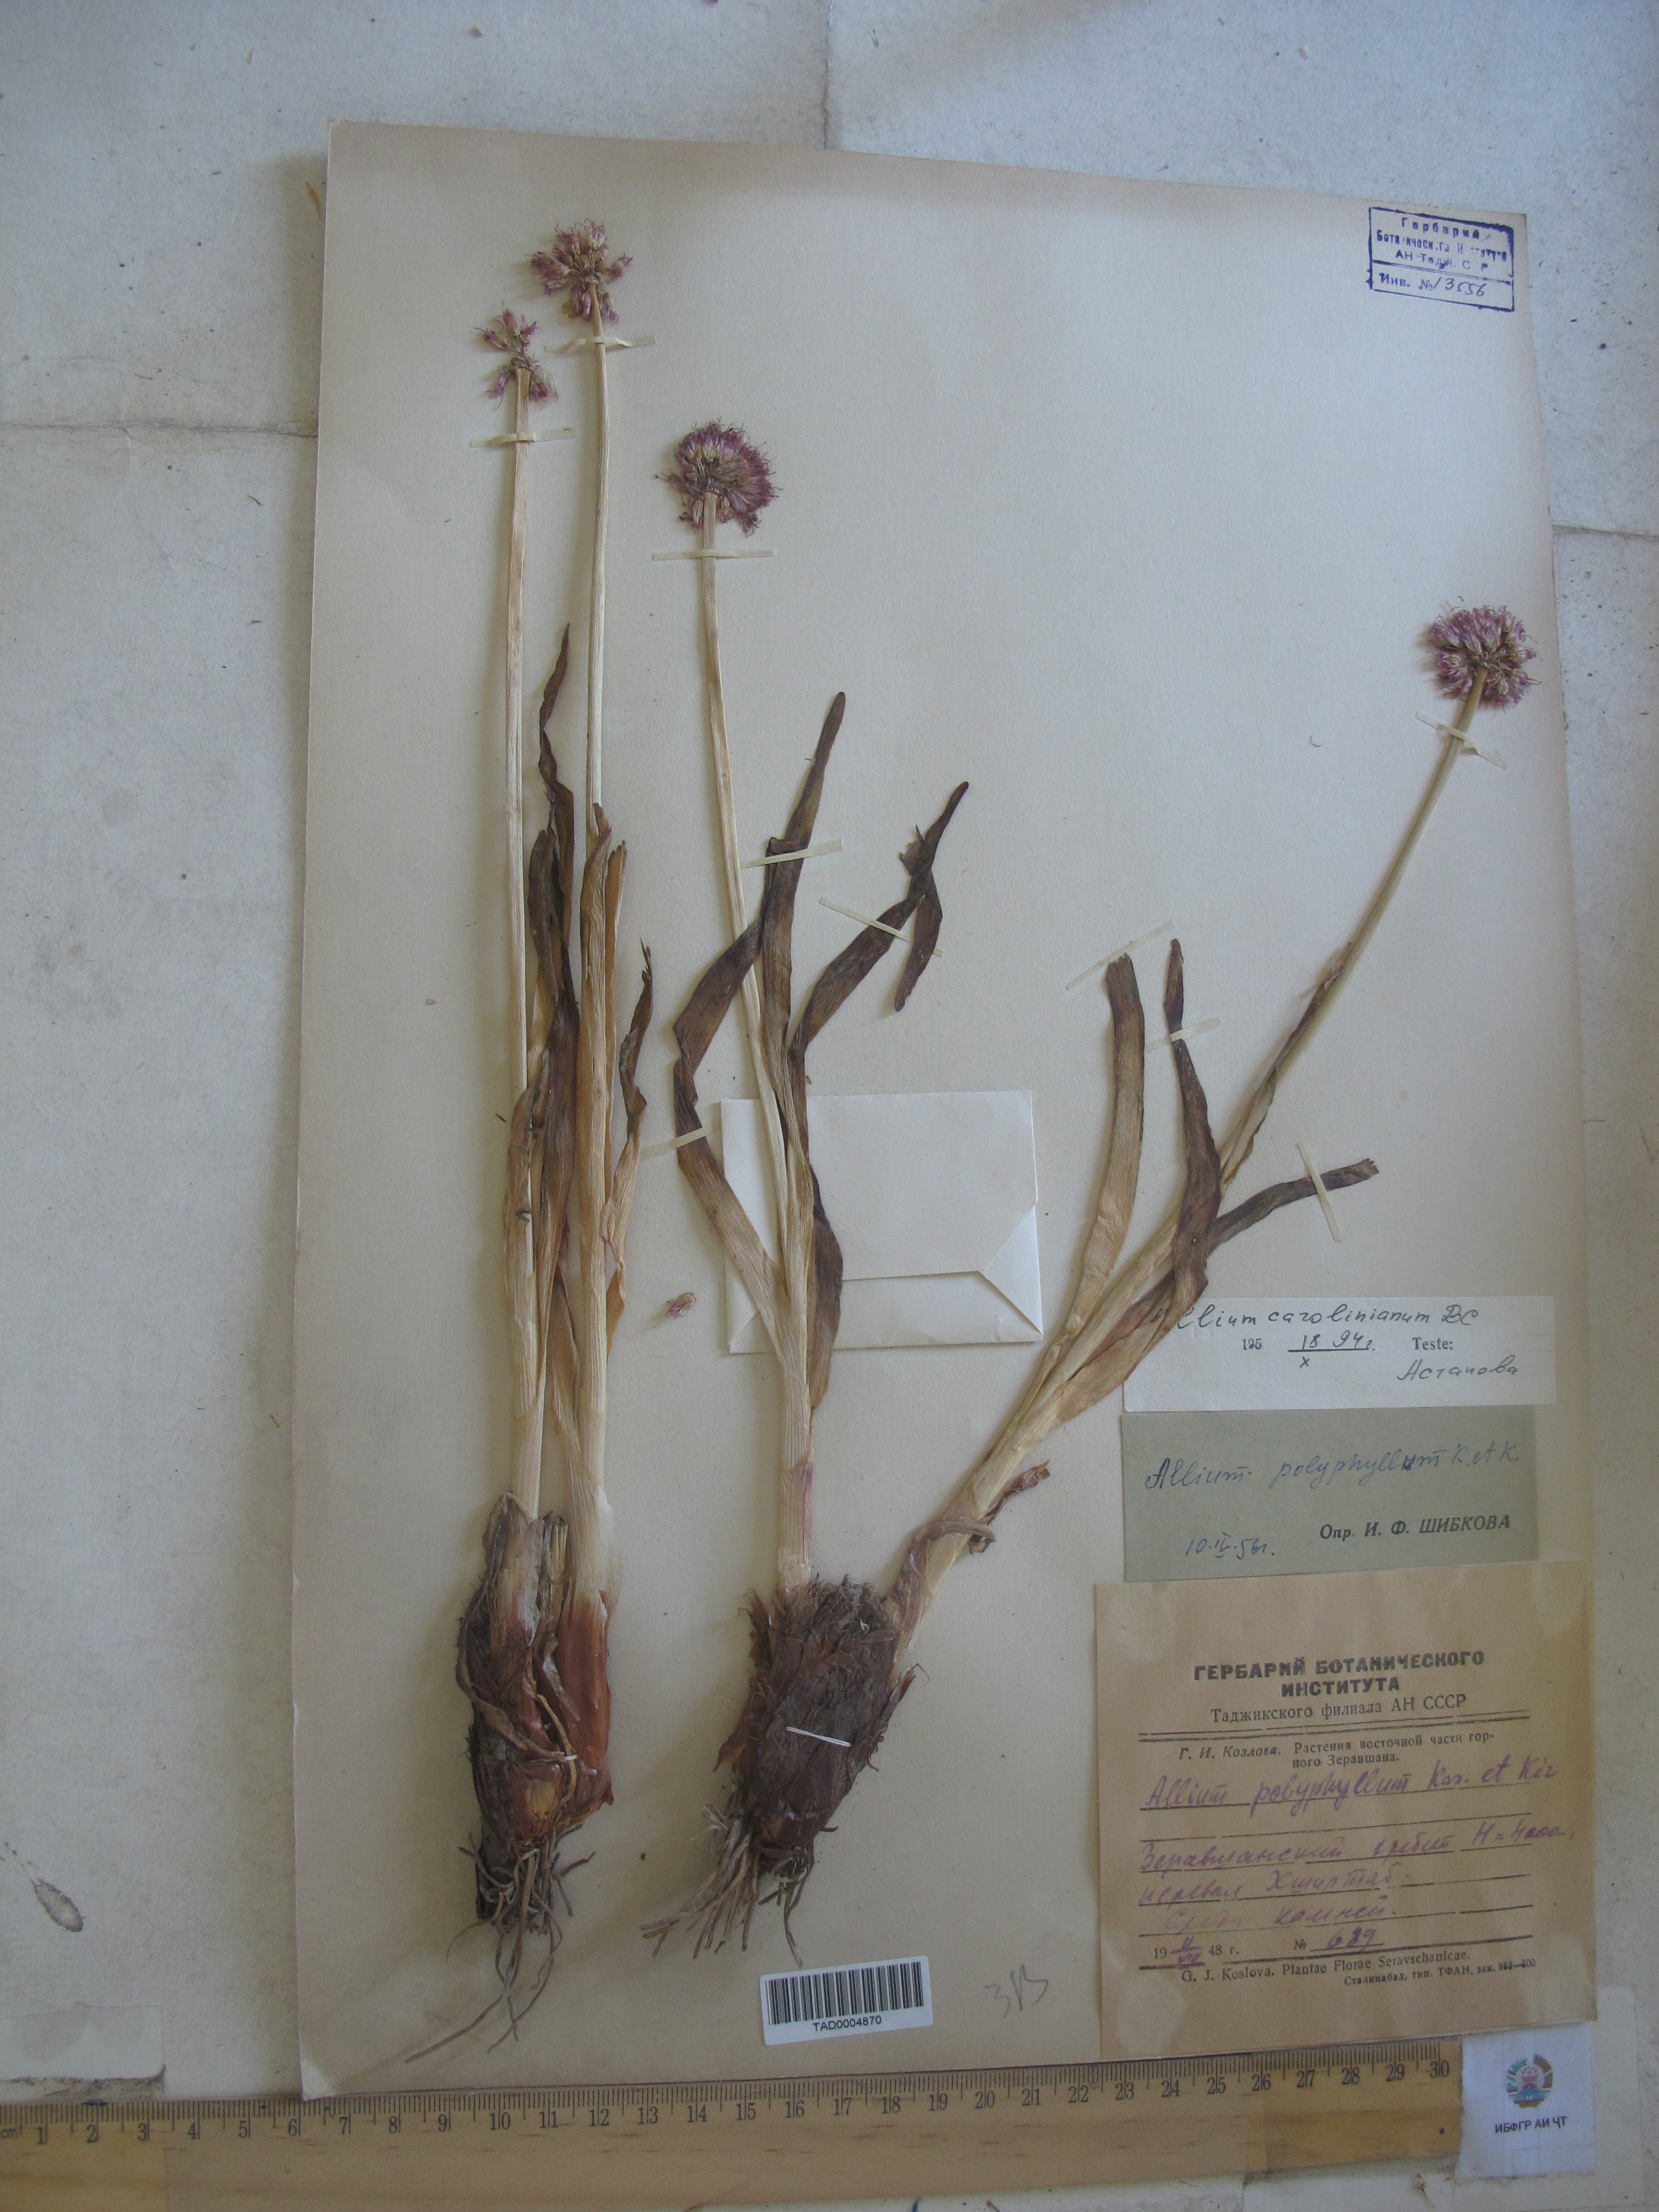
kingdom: Plantae
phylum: Tracheophyta
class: Liliopsida
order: Asparagales
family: Amaryllidaceae
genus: Allium
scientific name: Allium carolinianum
